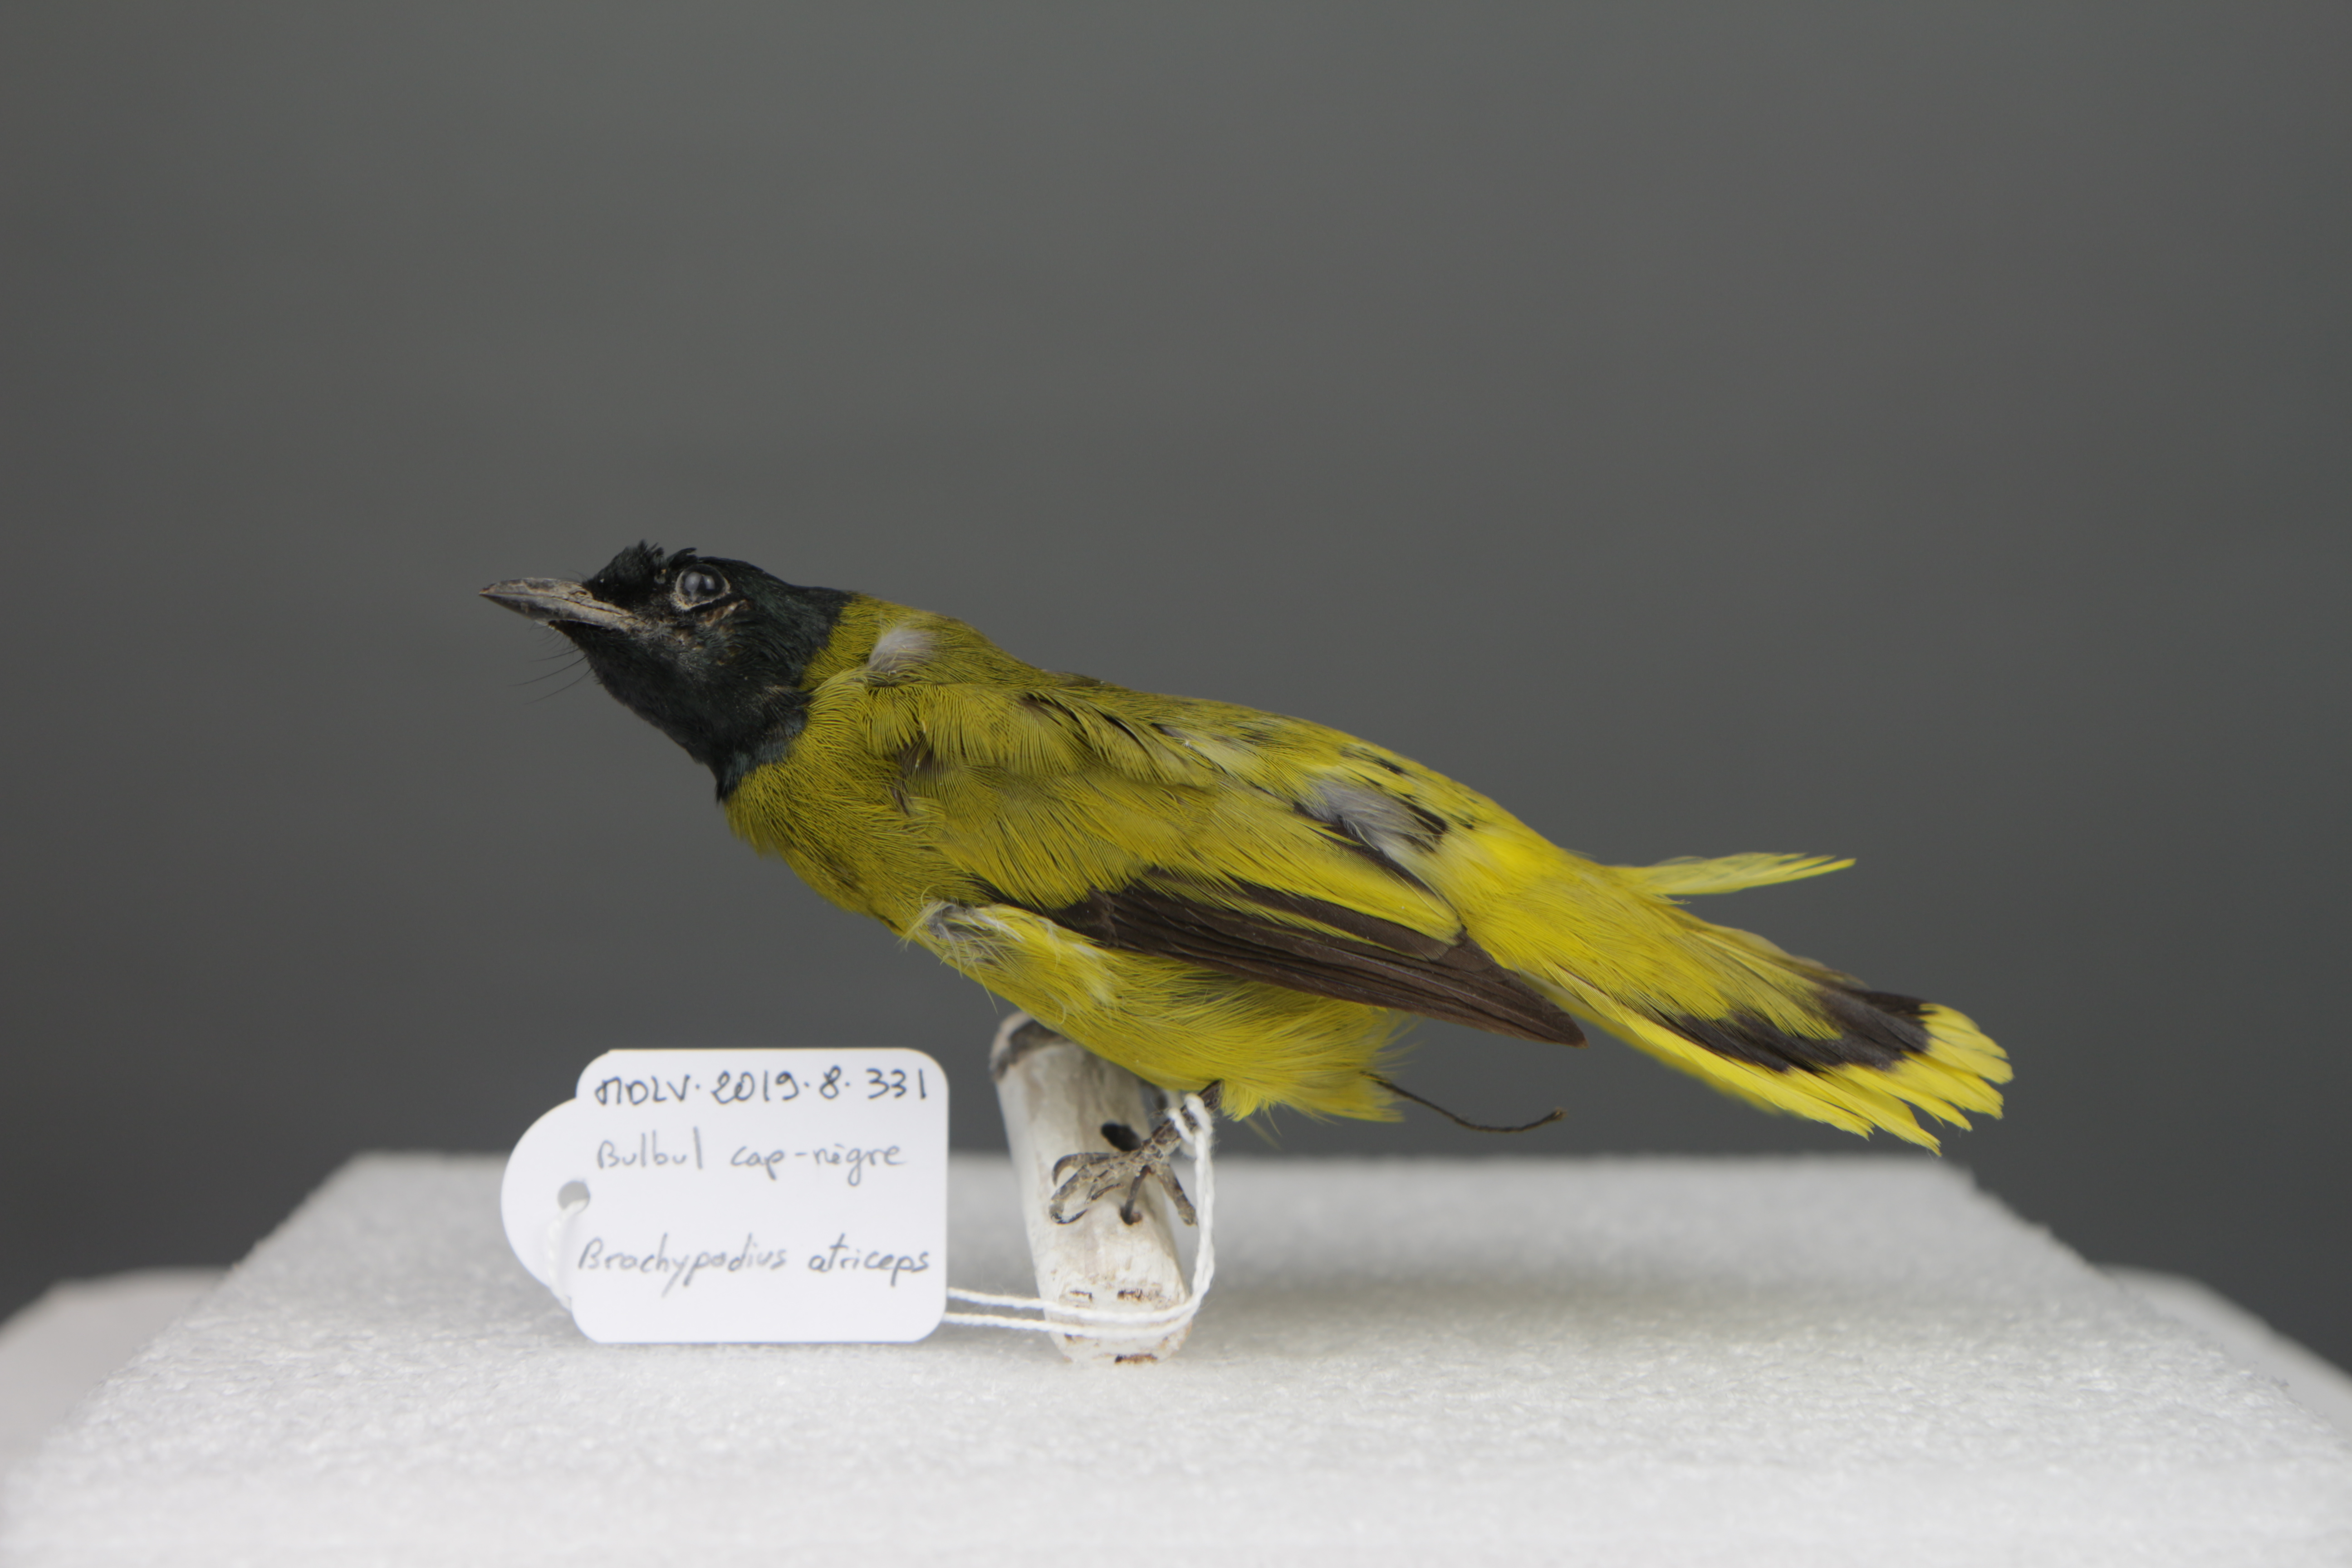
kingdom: Animalia
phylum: Chordata
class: Aves
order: Passeriformes
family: Pycnonotidae
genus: Pycnonotus
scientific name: Pycnonotus atriceps
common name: Black-headed bulbul
